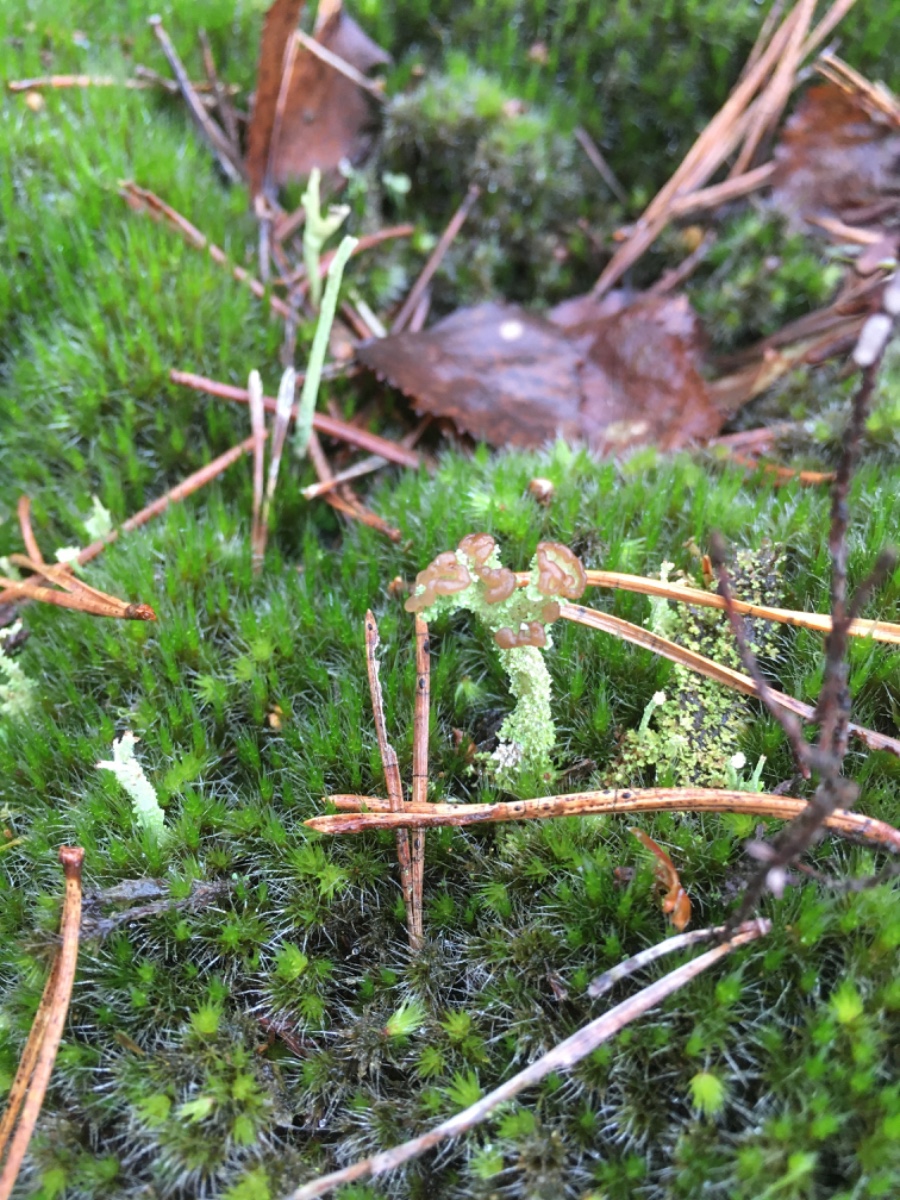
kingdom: Fungi
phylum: Ascomycota
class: Lecanoromycetes
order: Lecanorales
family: Cladoniaceae
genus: Cladonia
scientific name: Cladonia ramulosa
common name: kliddet bægerlav
